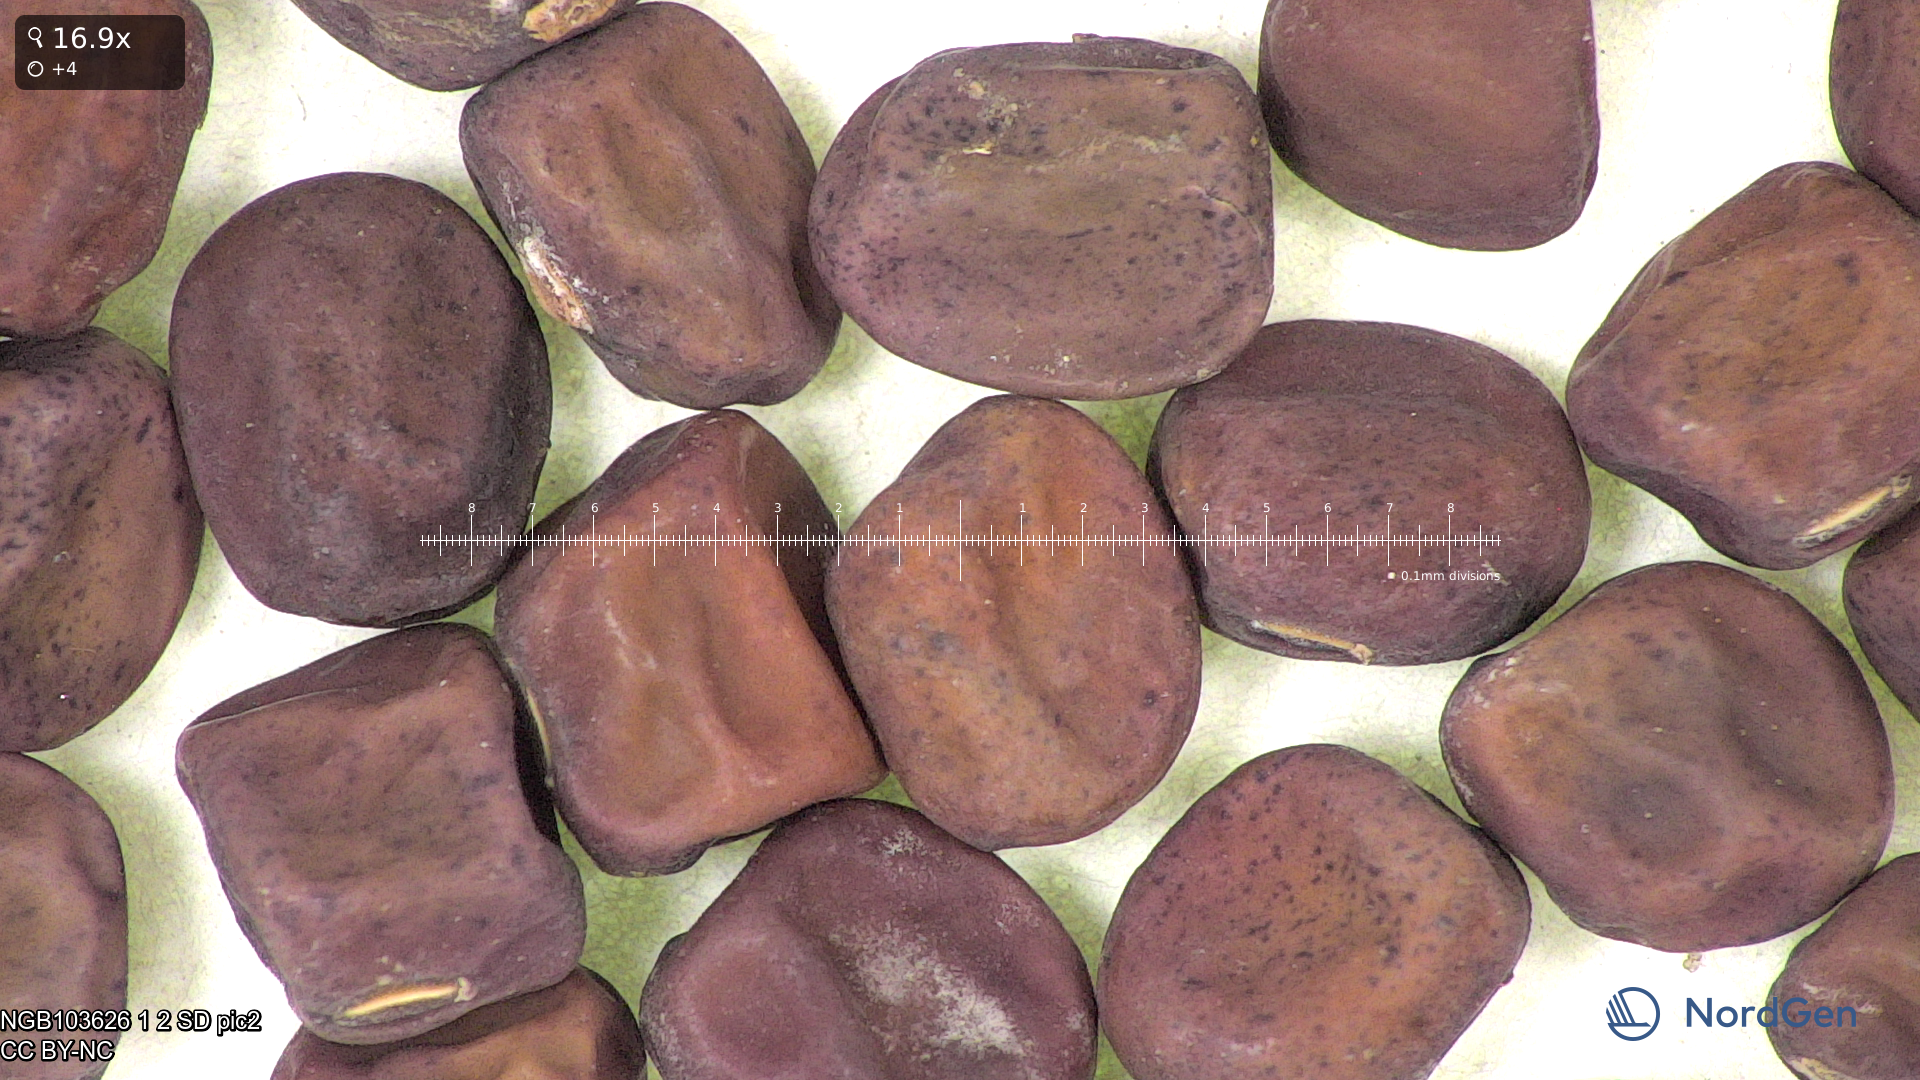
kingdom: Plantae
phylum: Tracheophyta
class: Magnoliopsida
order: Fabales
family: Fabaceae
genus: Lathyrus
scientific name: Lathyrus oleraceus
